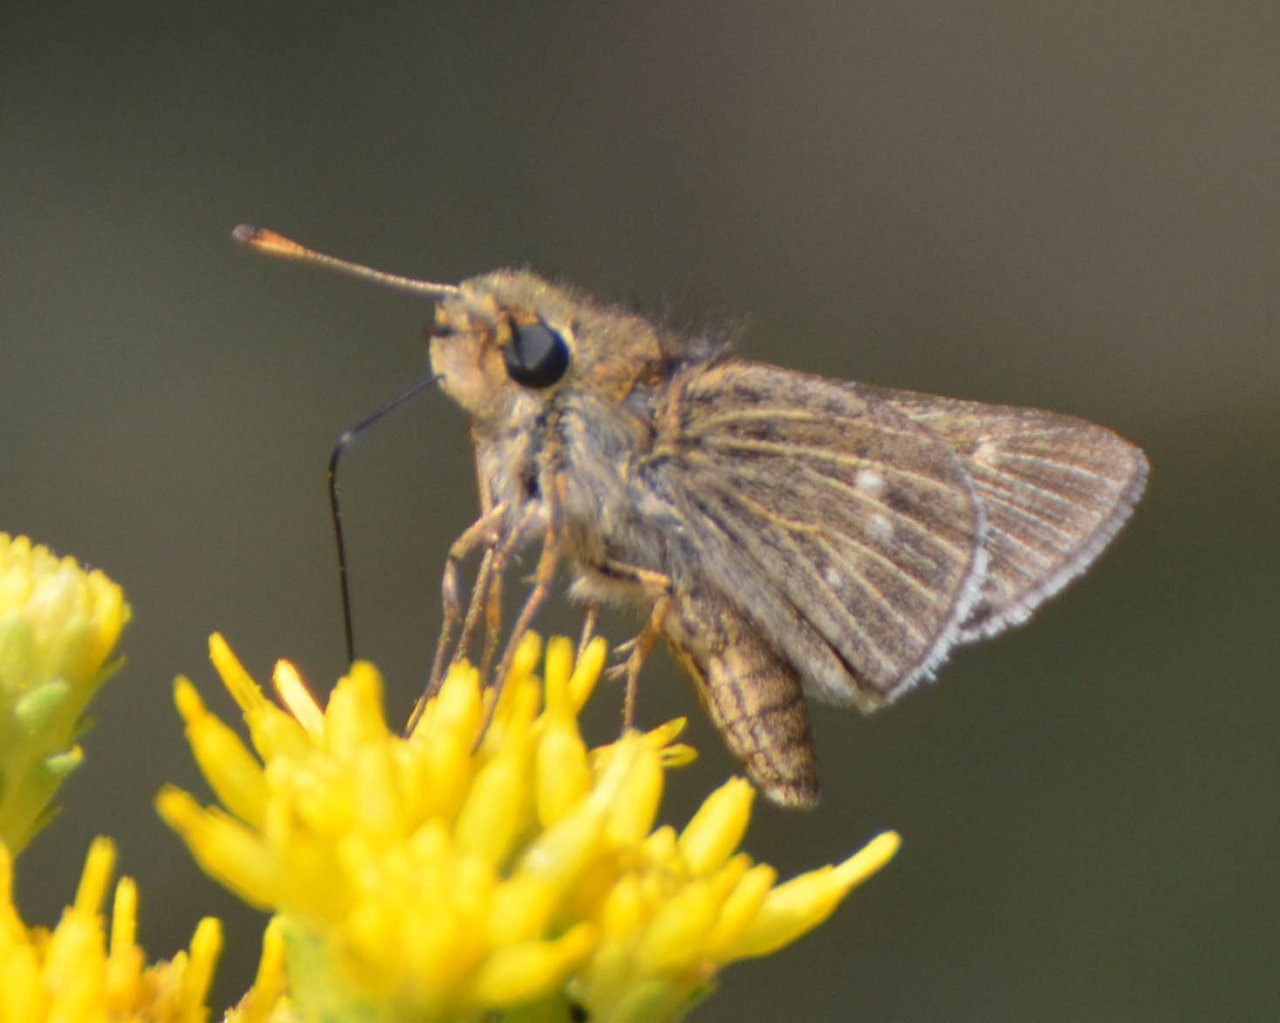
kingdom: Animalia
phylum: Arthropoda
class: Insecta
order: Lepidoptera
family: Hesperiidae
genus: Panoquina
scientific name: Panoquina errans
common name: Wandering Skipper
